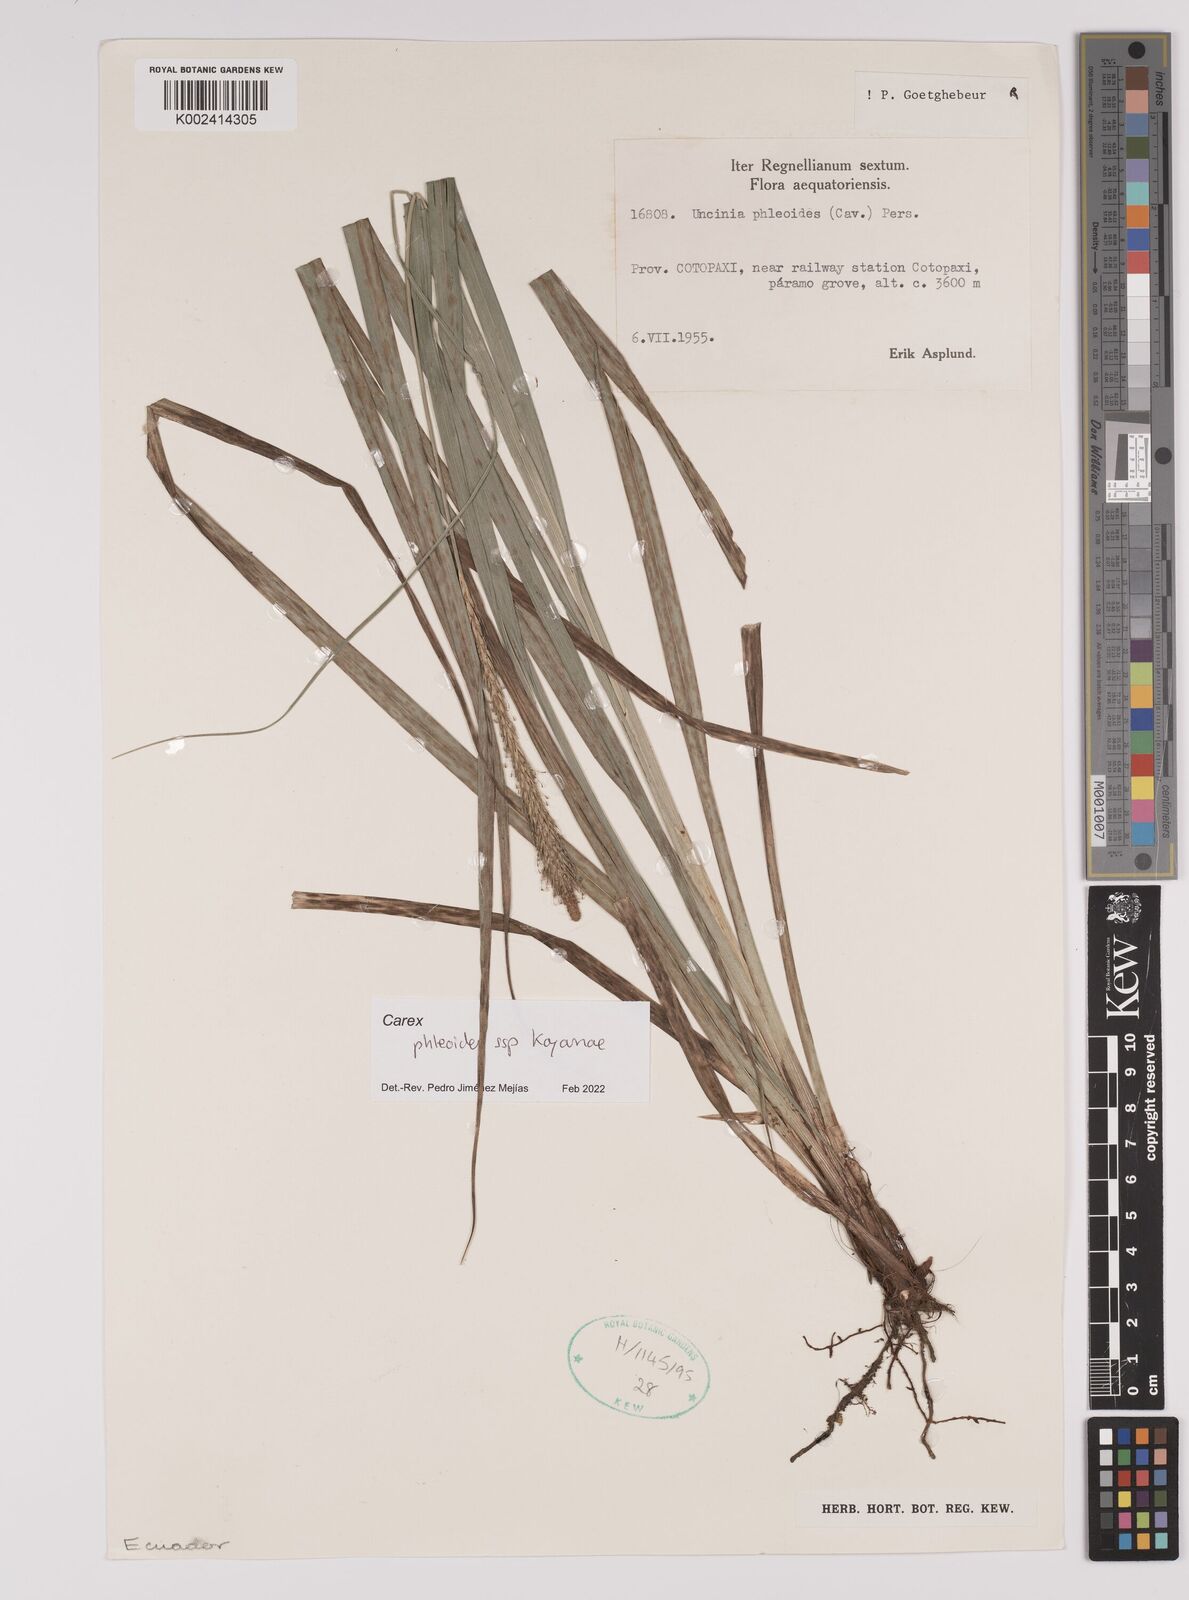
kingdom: Plantae
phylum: Tracheophyta
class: Liliopsida
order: Poales
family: Cyperaceae
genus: Carex
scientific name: Carex phleoides
